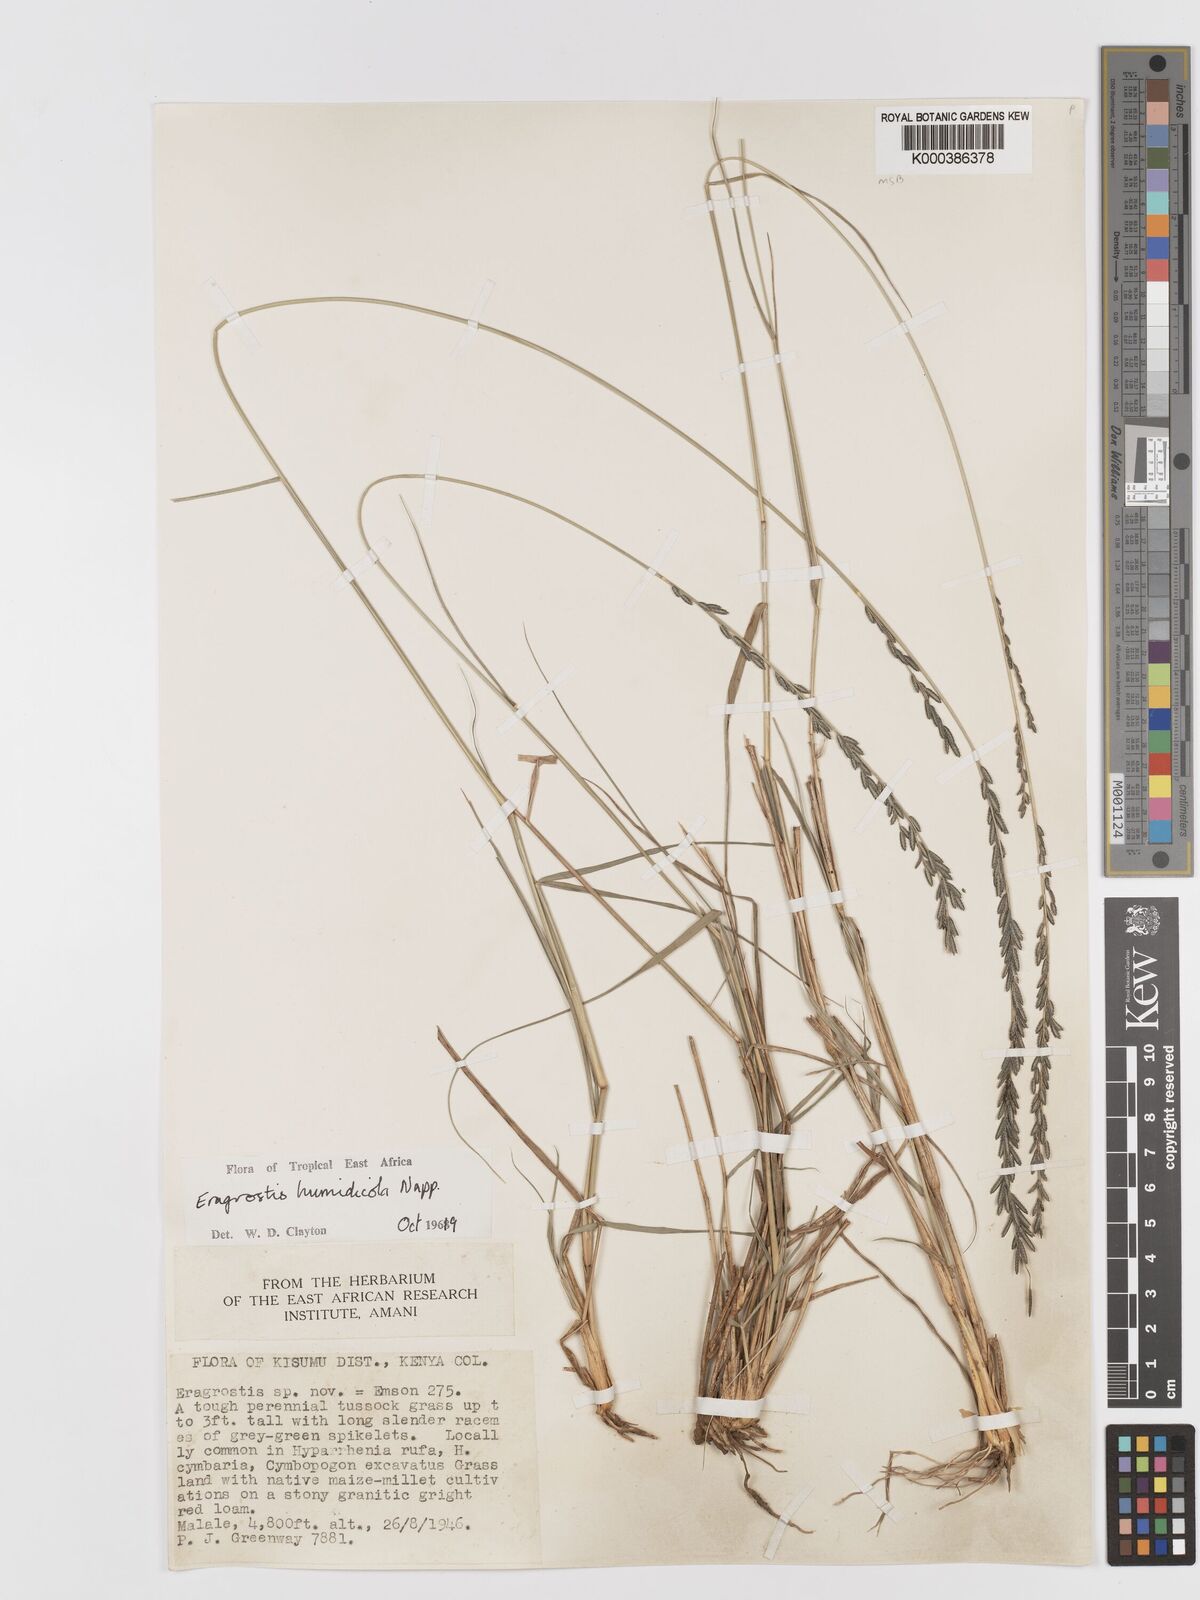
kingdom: Plantae
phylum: Tracheophyta
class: Liliopsida
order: Poales
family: Poaceae
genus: Eragrostis
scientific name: Eragrostis humidicola
